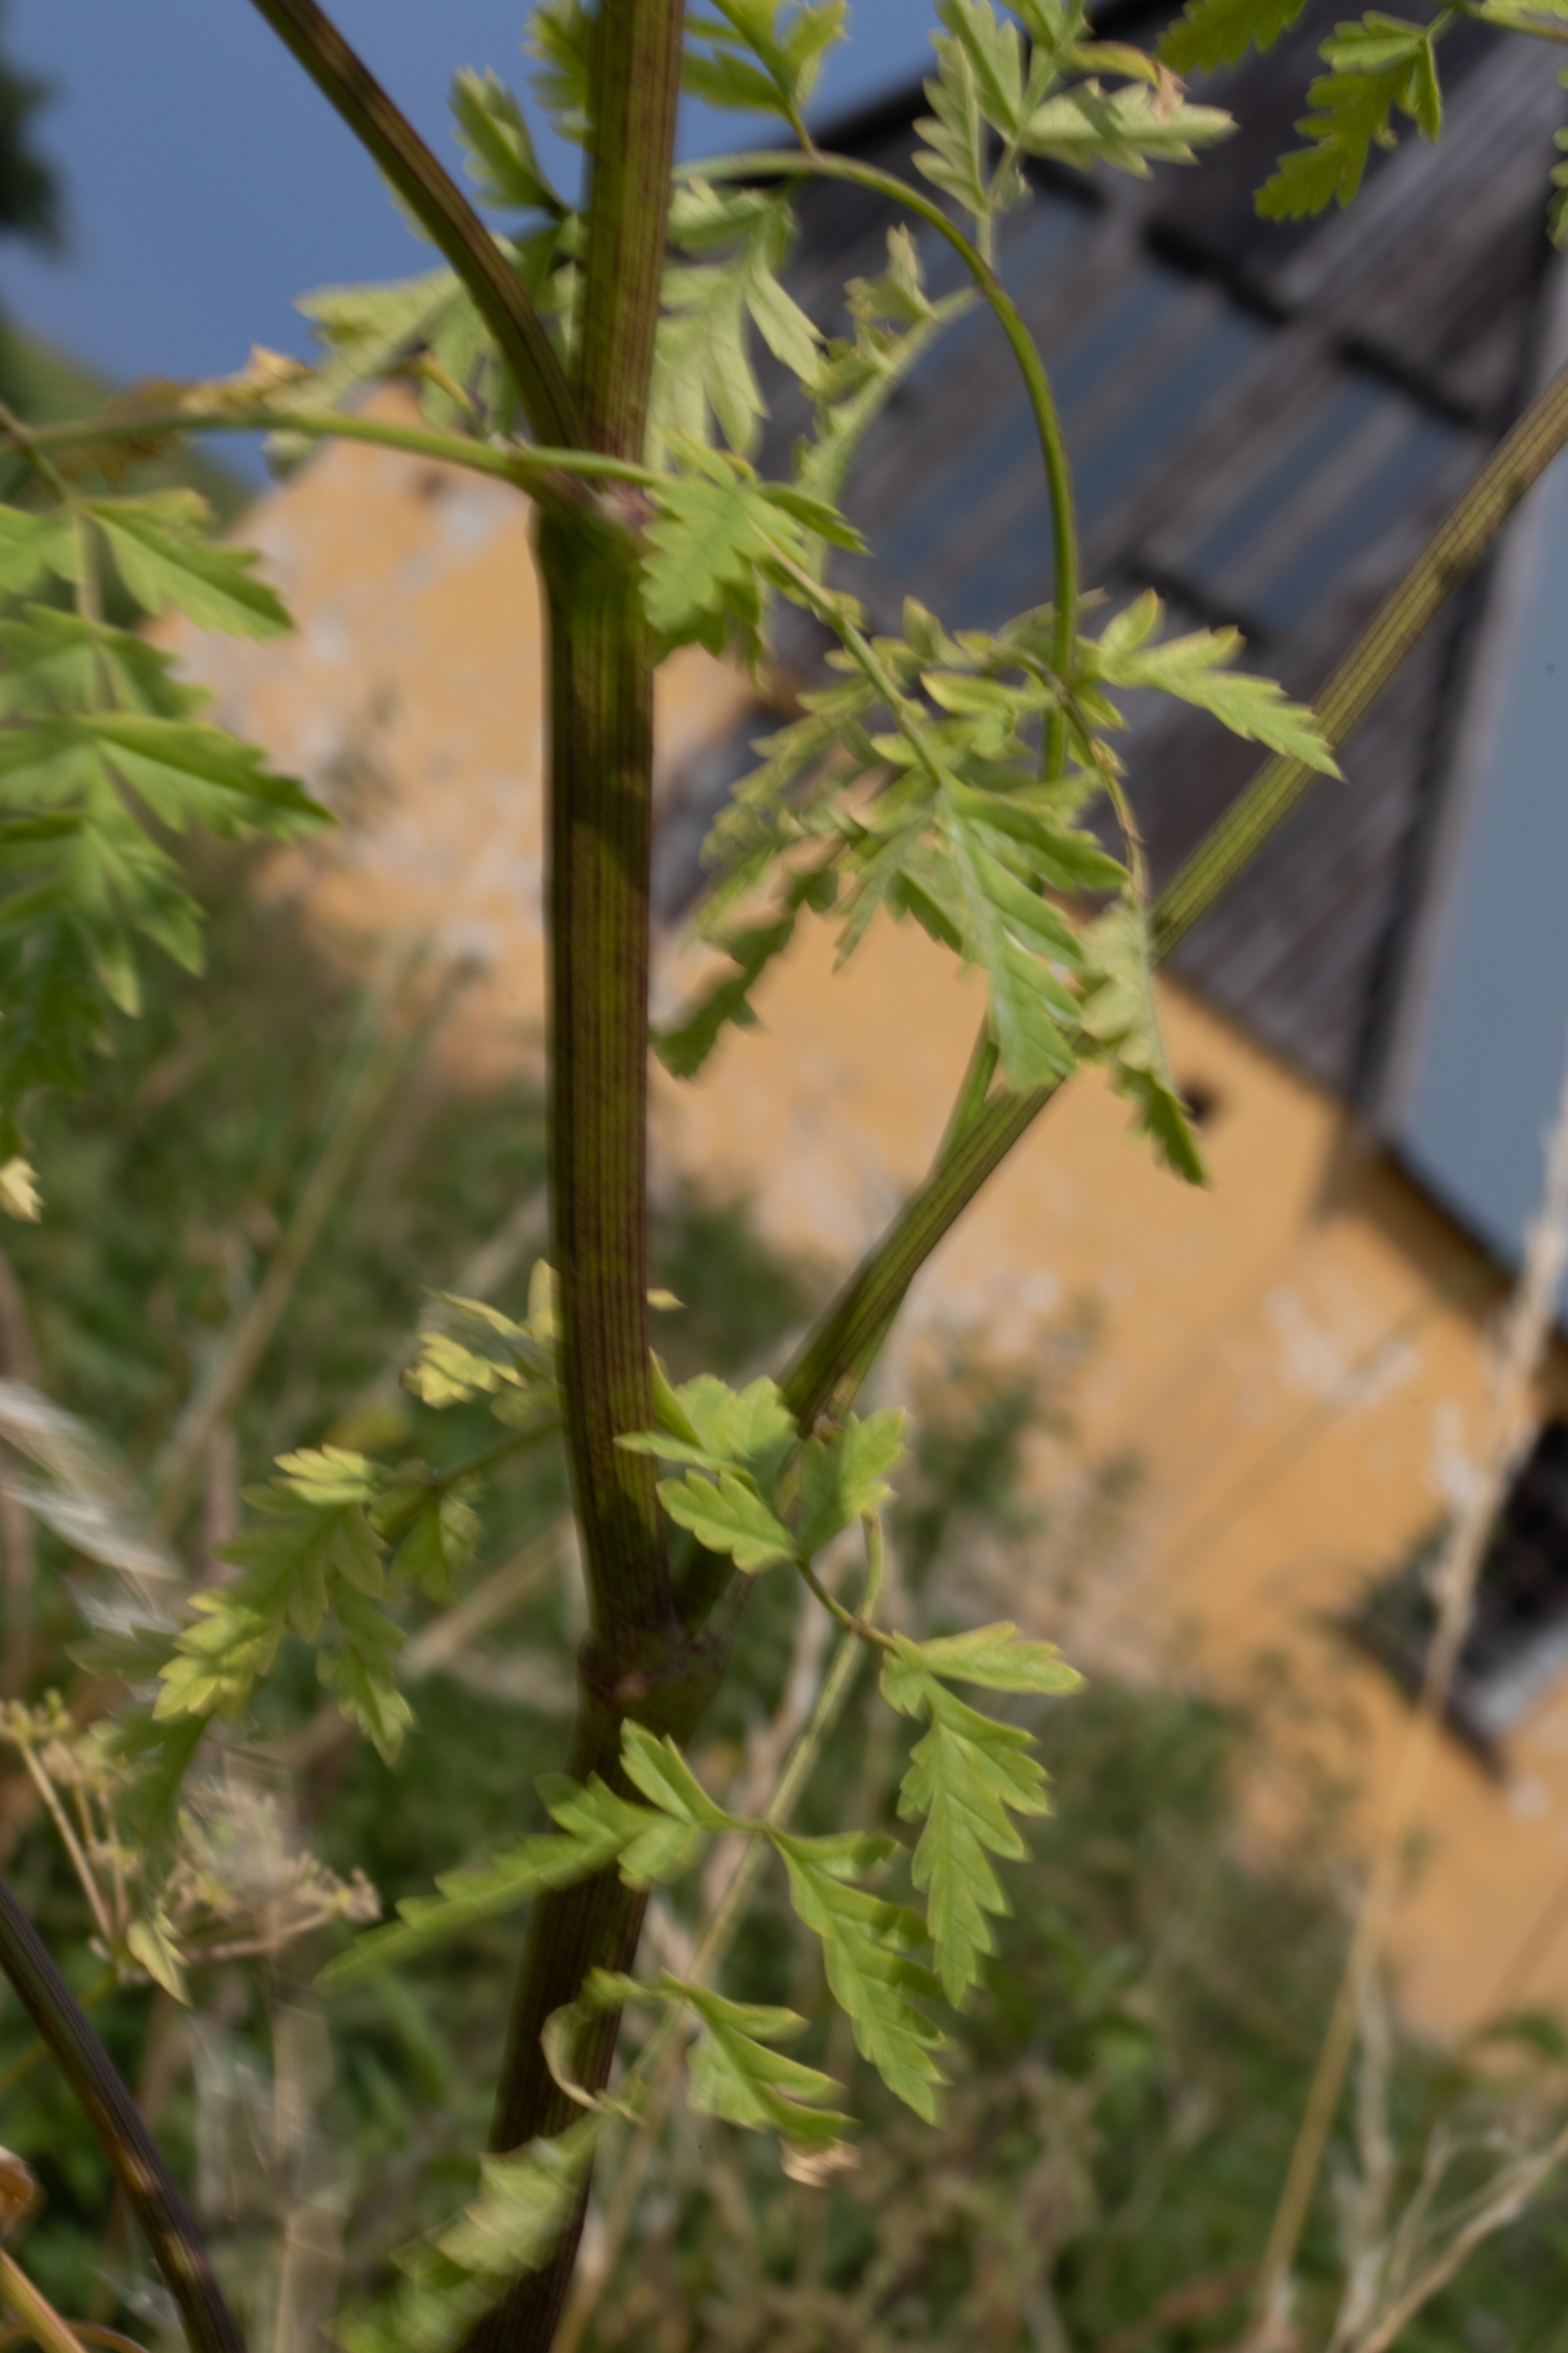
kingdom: Plantae
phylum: Tracheophyta
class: Magnoliopsida
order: Apiales
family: Apiaceae
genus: Conium
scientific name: Conium maculatum
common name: Skarntyde
